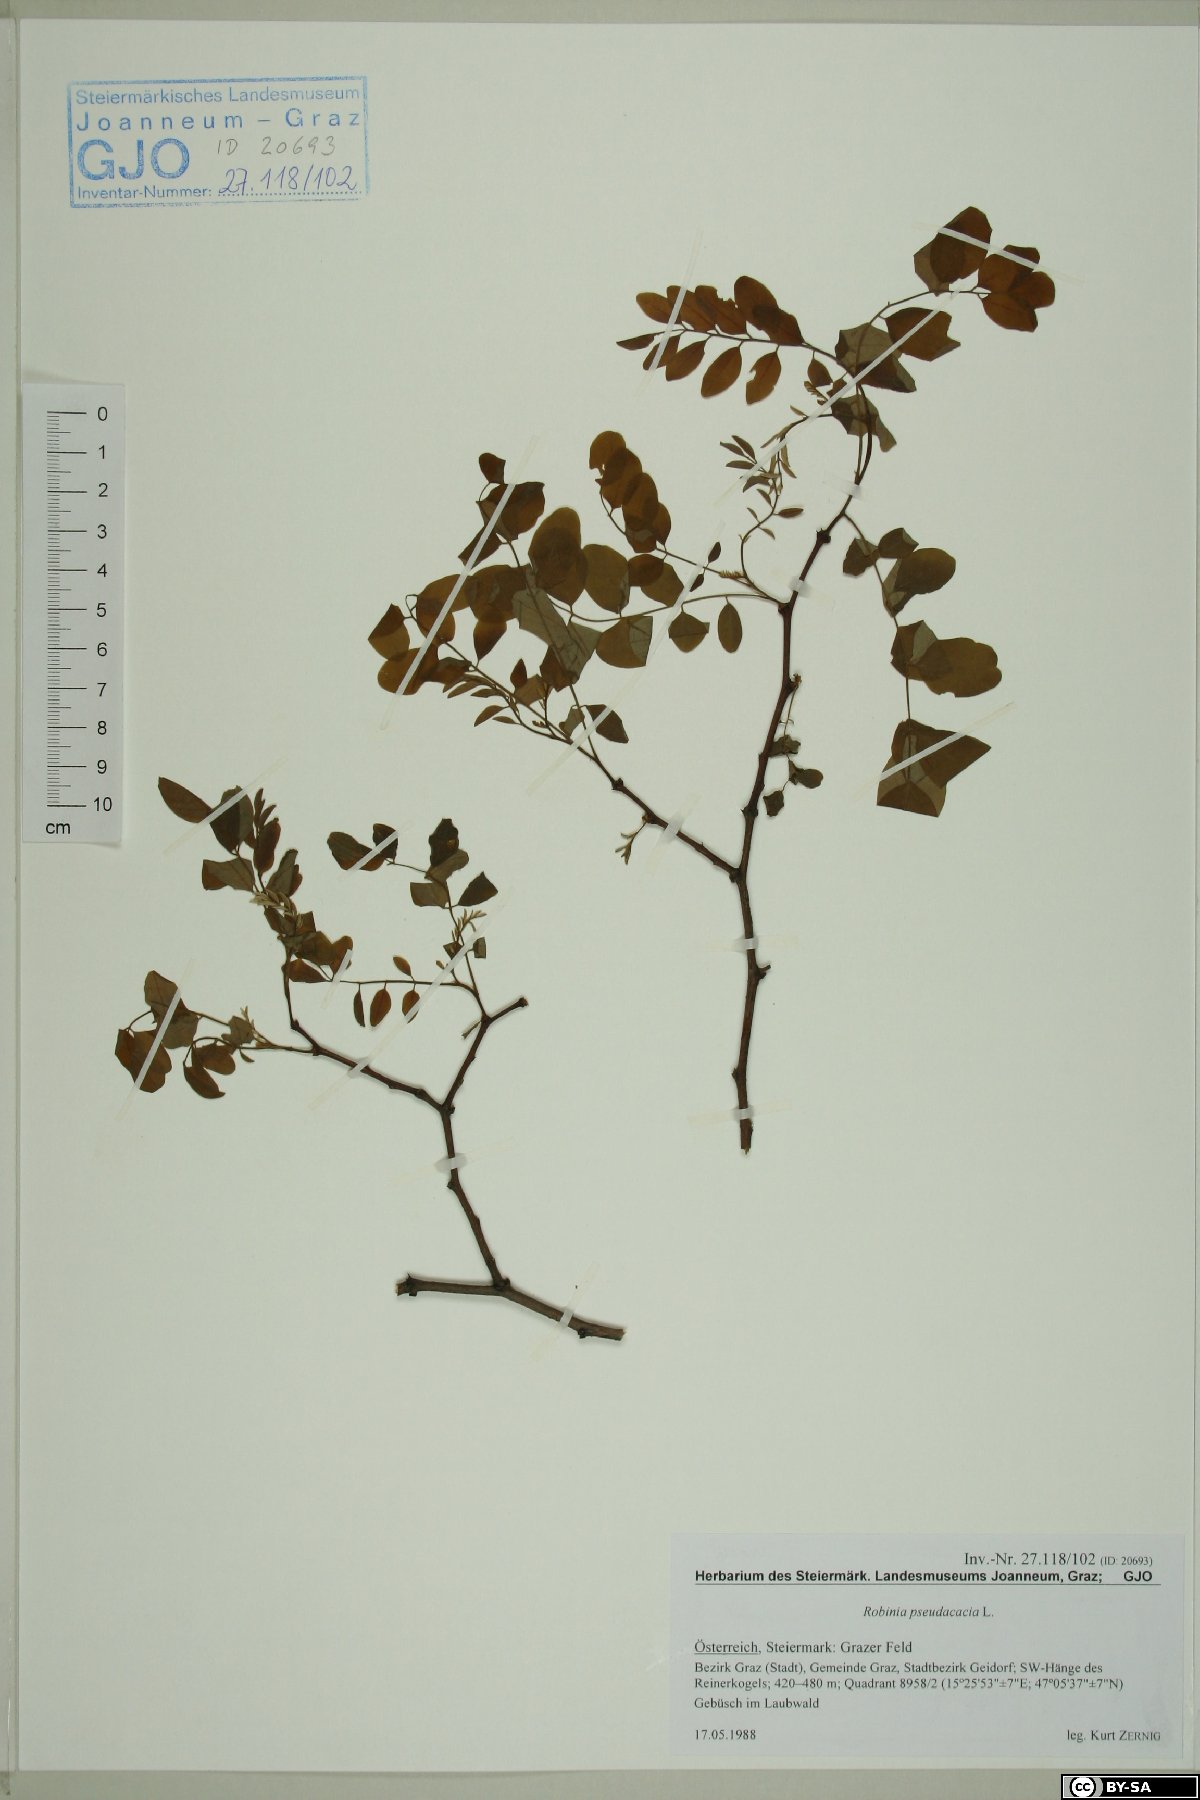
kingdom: Plantae
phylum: Tracheophyta
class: Magnoliopsida
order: Fabales
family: Fabaceae
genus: Robinia
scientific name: Robinia pseudoacacia
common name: Black locust
